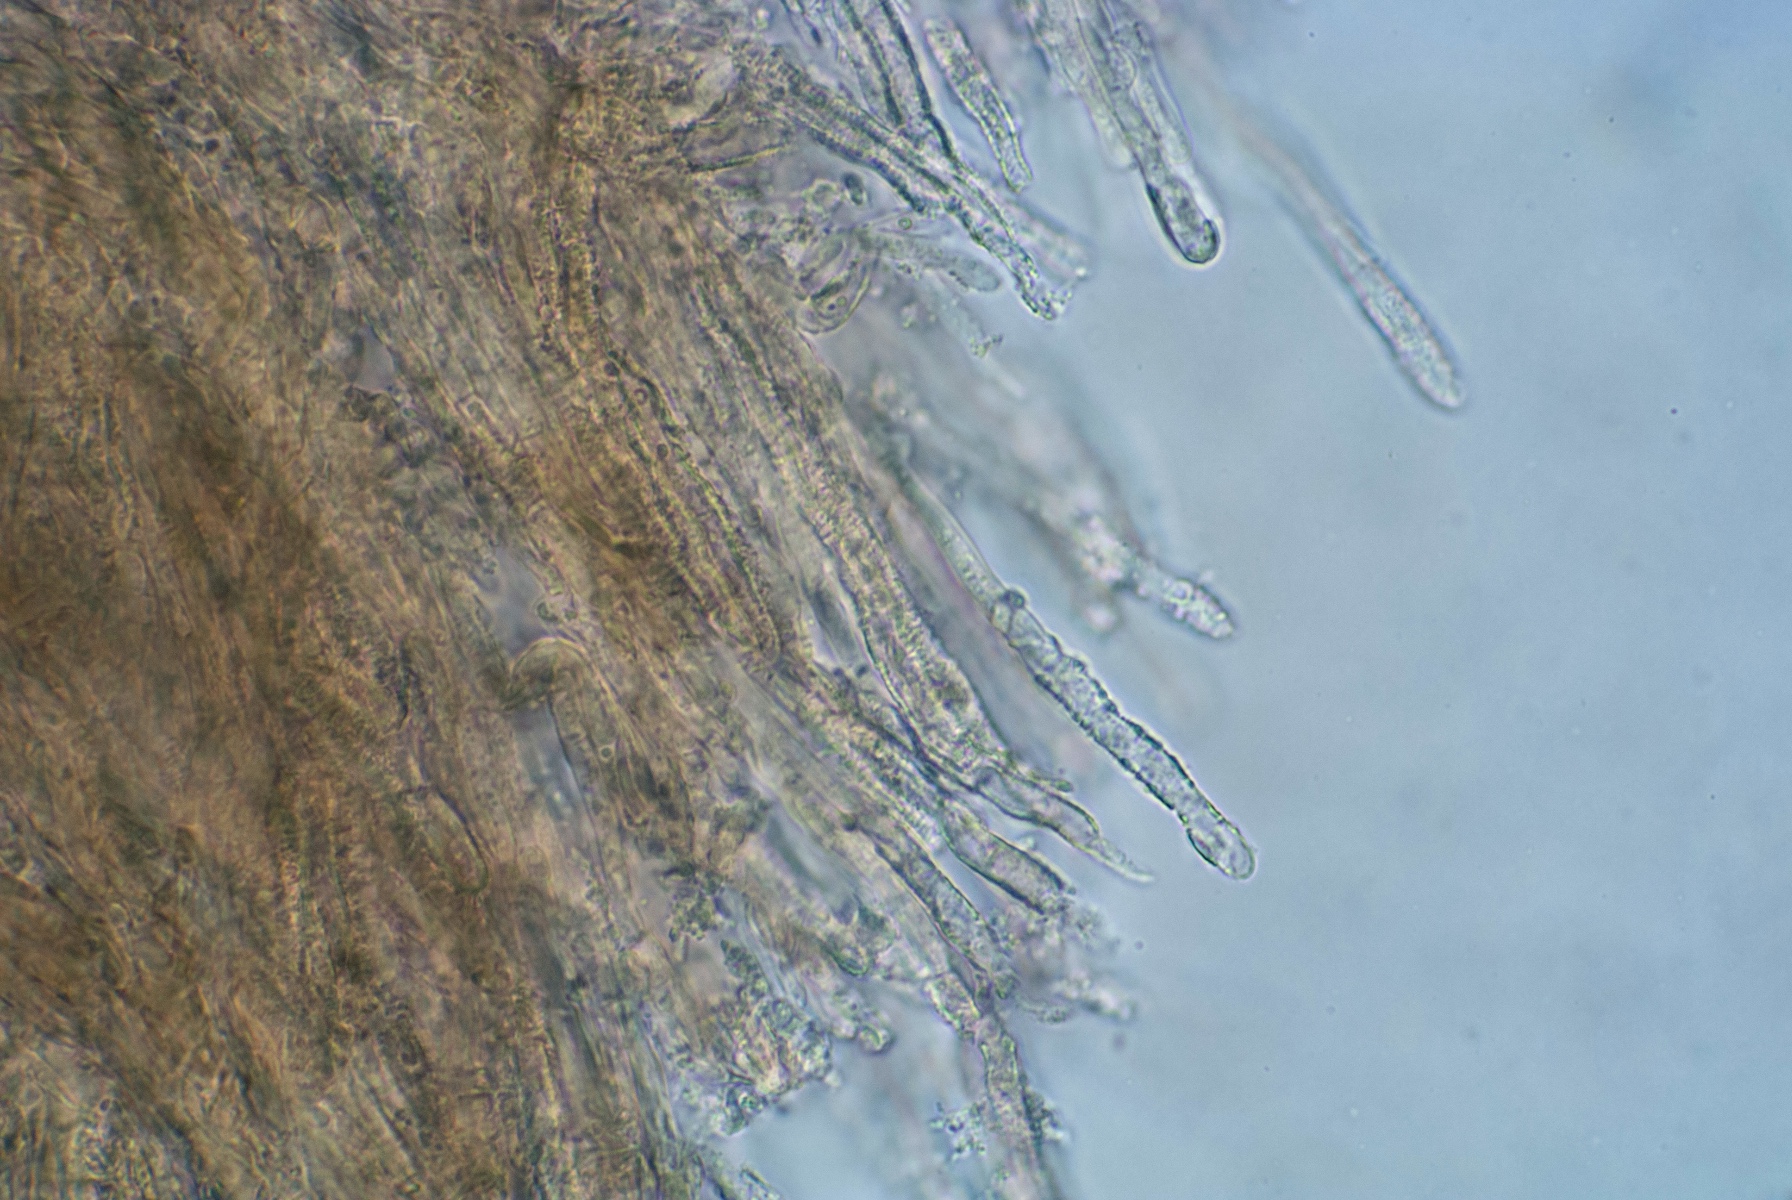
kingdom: Fungi
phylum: Basidiomycota
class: Agaricomycetes
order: Polyporales
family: Meruliaceae
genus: Mycoacia
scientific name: Mycoacia fuscoatra
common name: mørk vokspig
